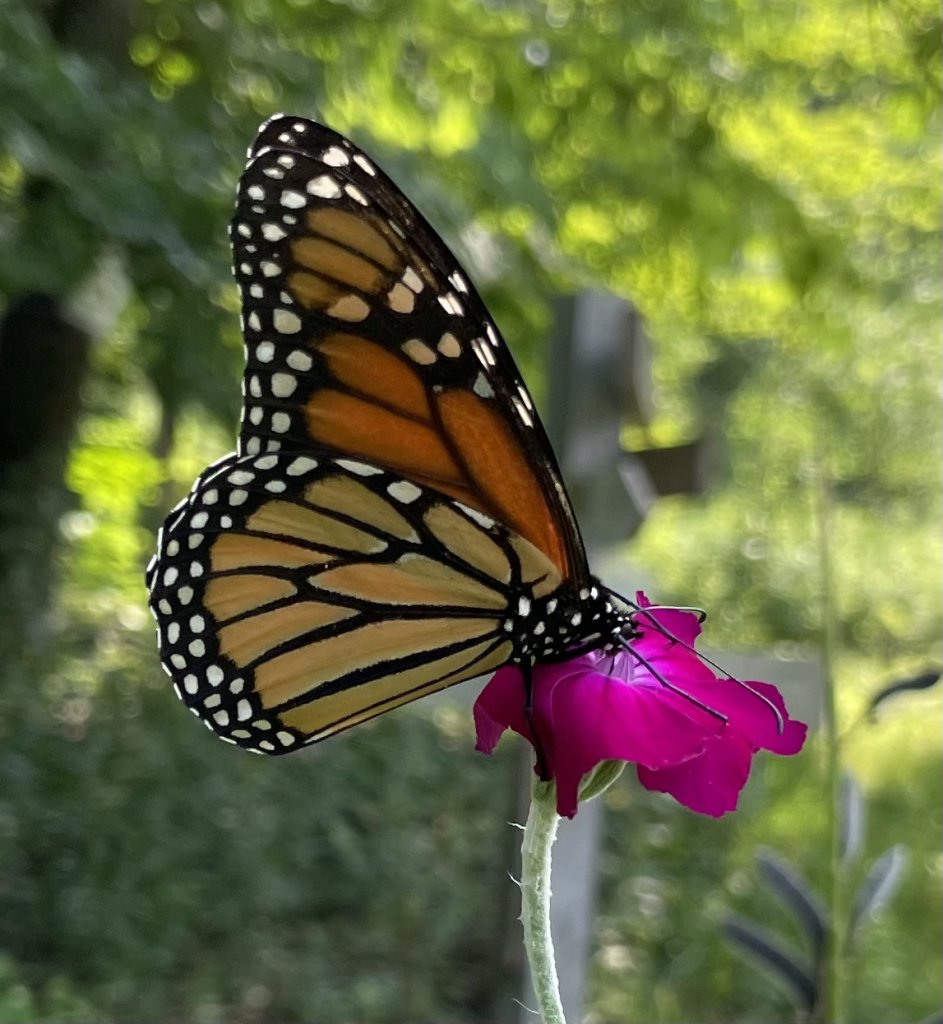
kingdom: Animalia
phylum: Arthropoda
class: Insecta
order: Lepidoptera
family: Nymphalidae
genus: Danaus
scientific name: Danaus plexippus
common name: Monarch
